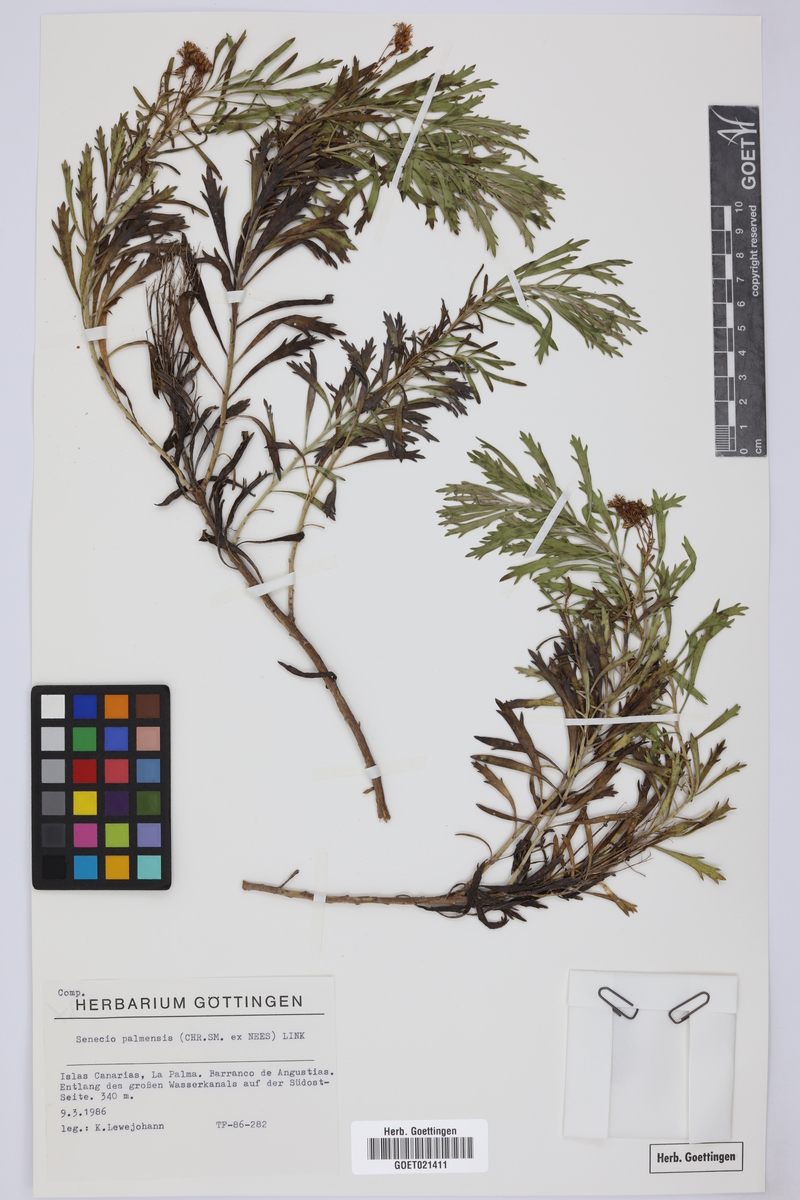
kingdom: Plantae
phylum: Tracheophyta
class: Magnoliopsida
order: Asterales
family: Asteraceae
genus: Bethencourtia
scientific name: Bethencourtia palmensis
